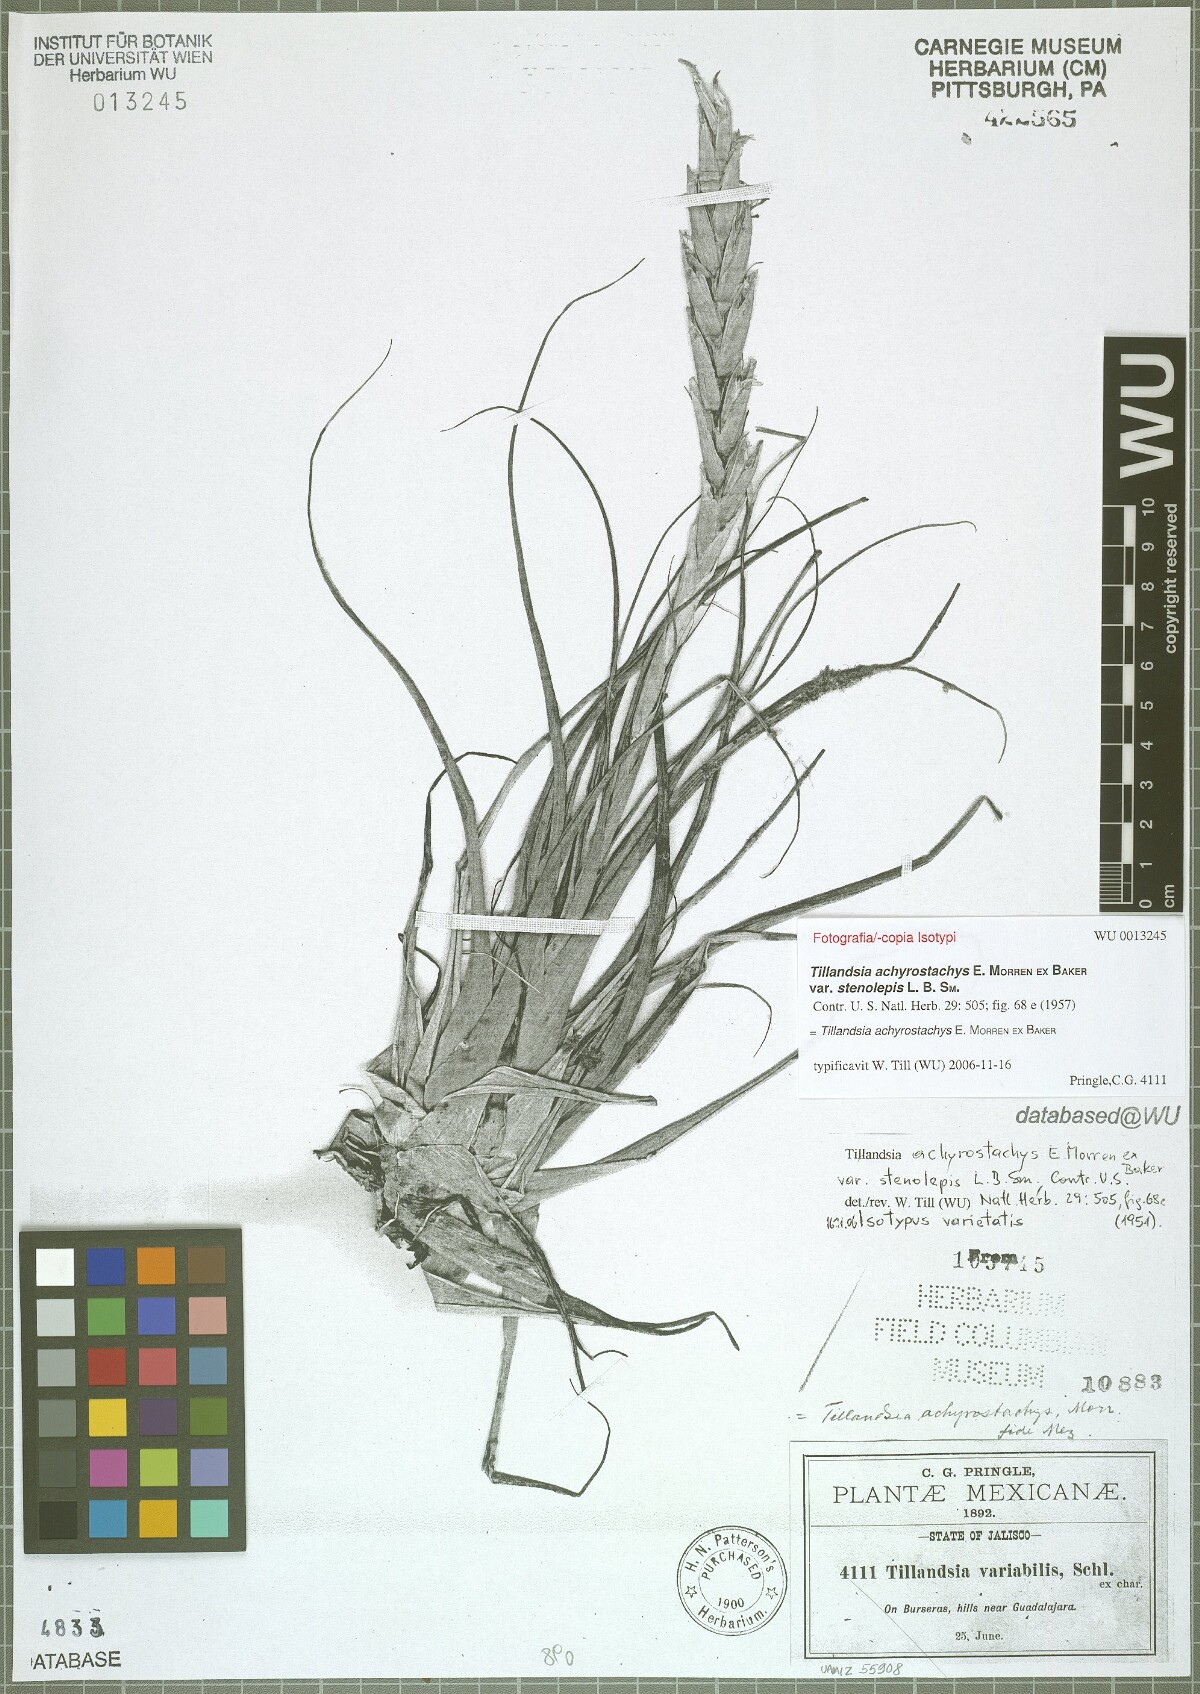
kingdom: Plantae
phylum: Tracheophyta
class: Liliopsida
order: Poales
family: Bromeliaceae
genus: Tillandsia
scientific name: Tillandsia achyrostachys
